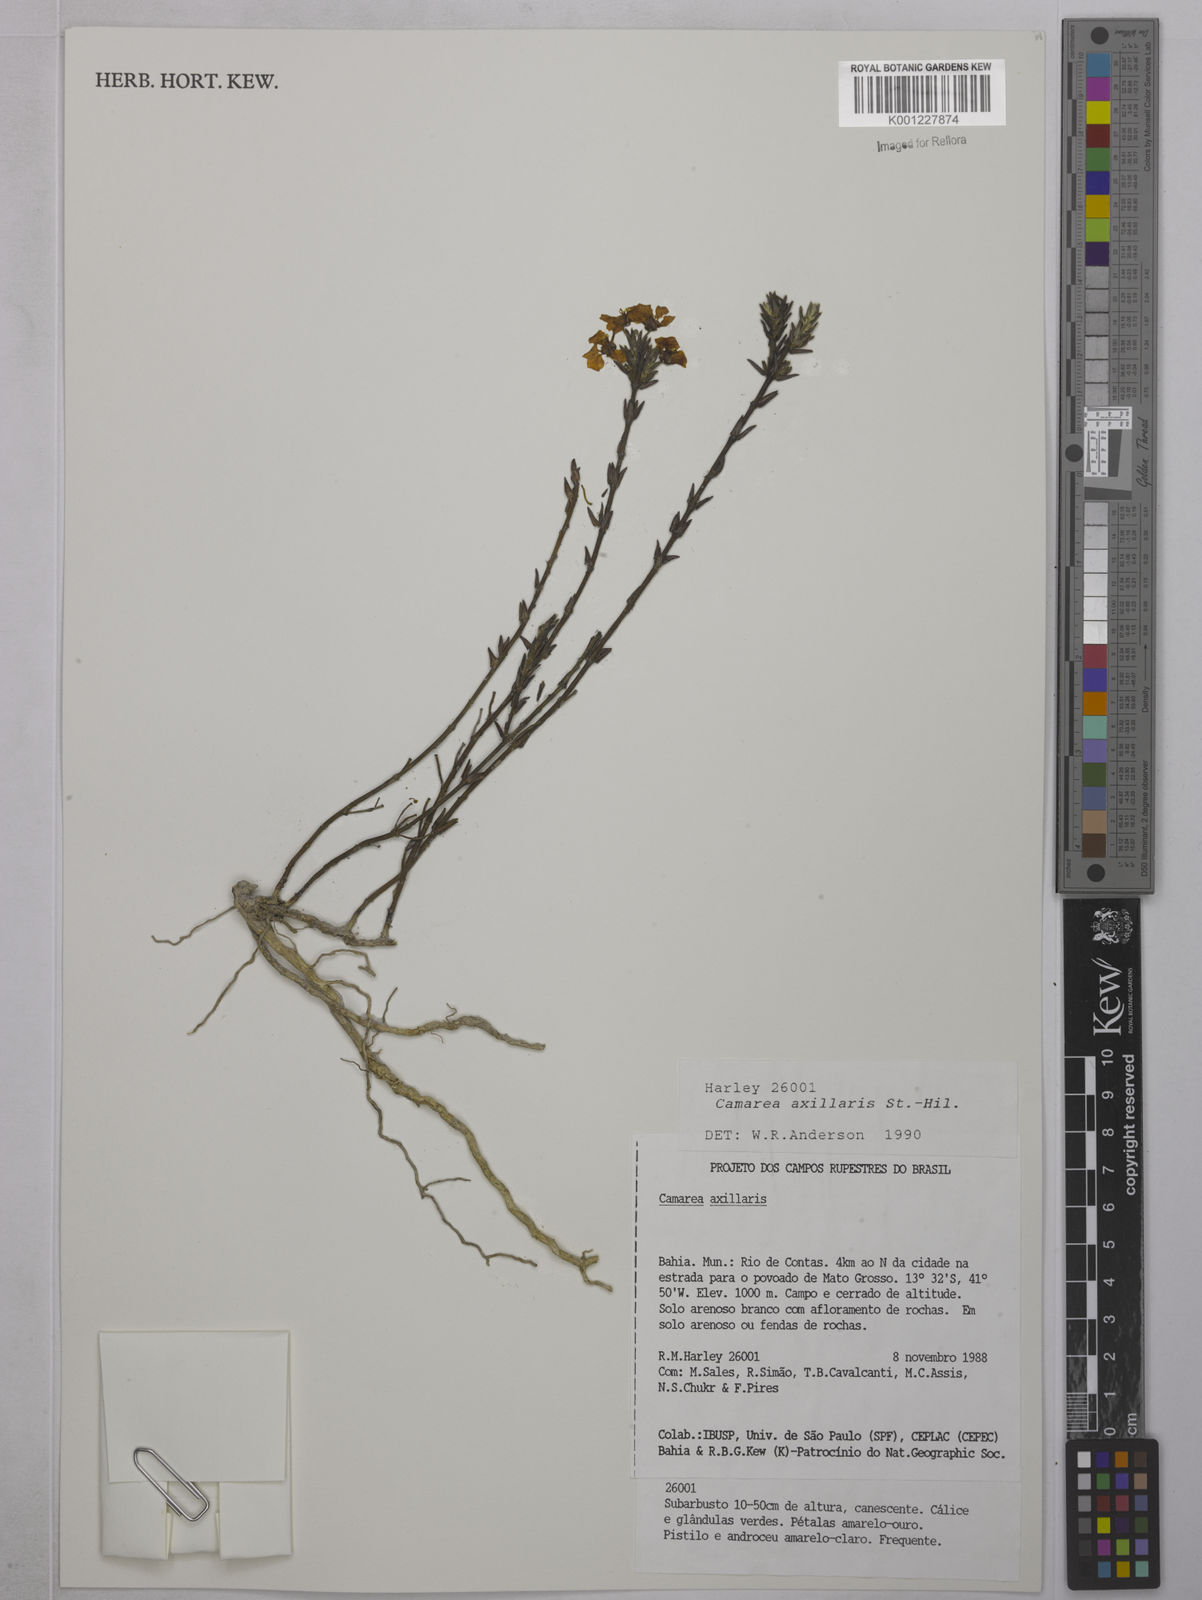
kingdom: Plantae
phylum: Tracheophyta
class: Magnoliopsida
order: Malpighiales
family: Malpighiaceae
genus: Camarea
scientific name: Camarea axillaris
